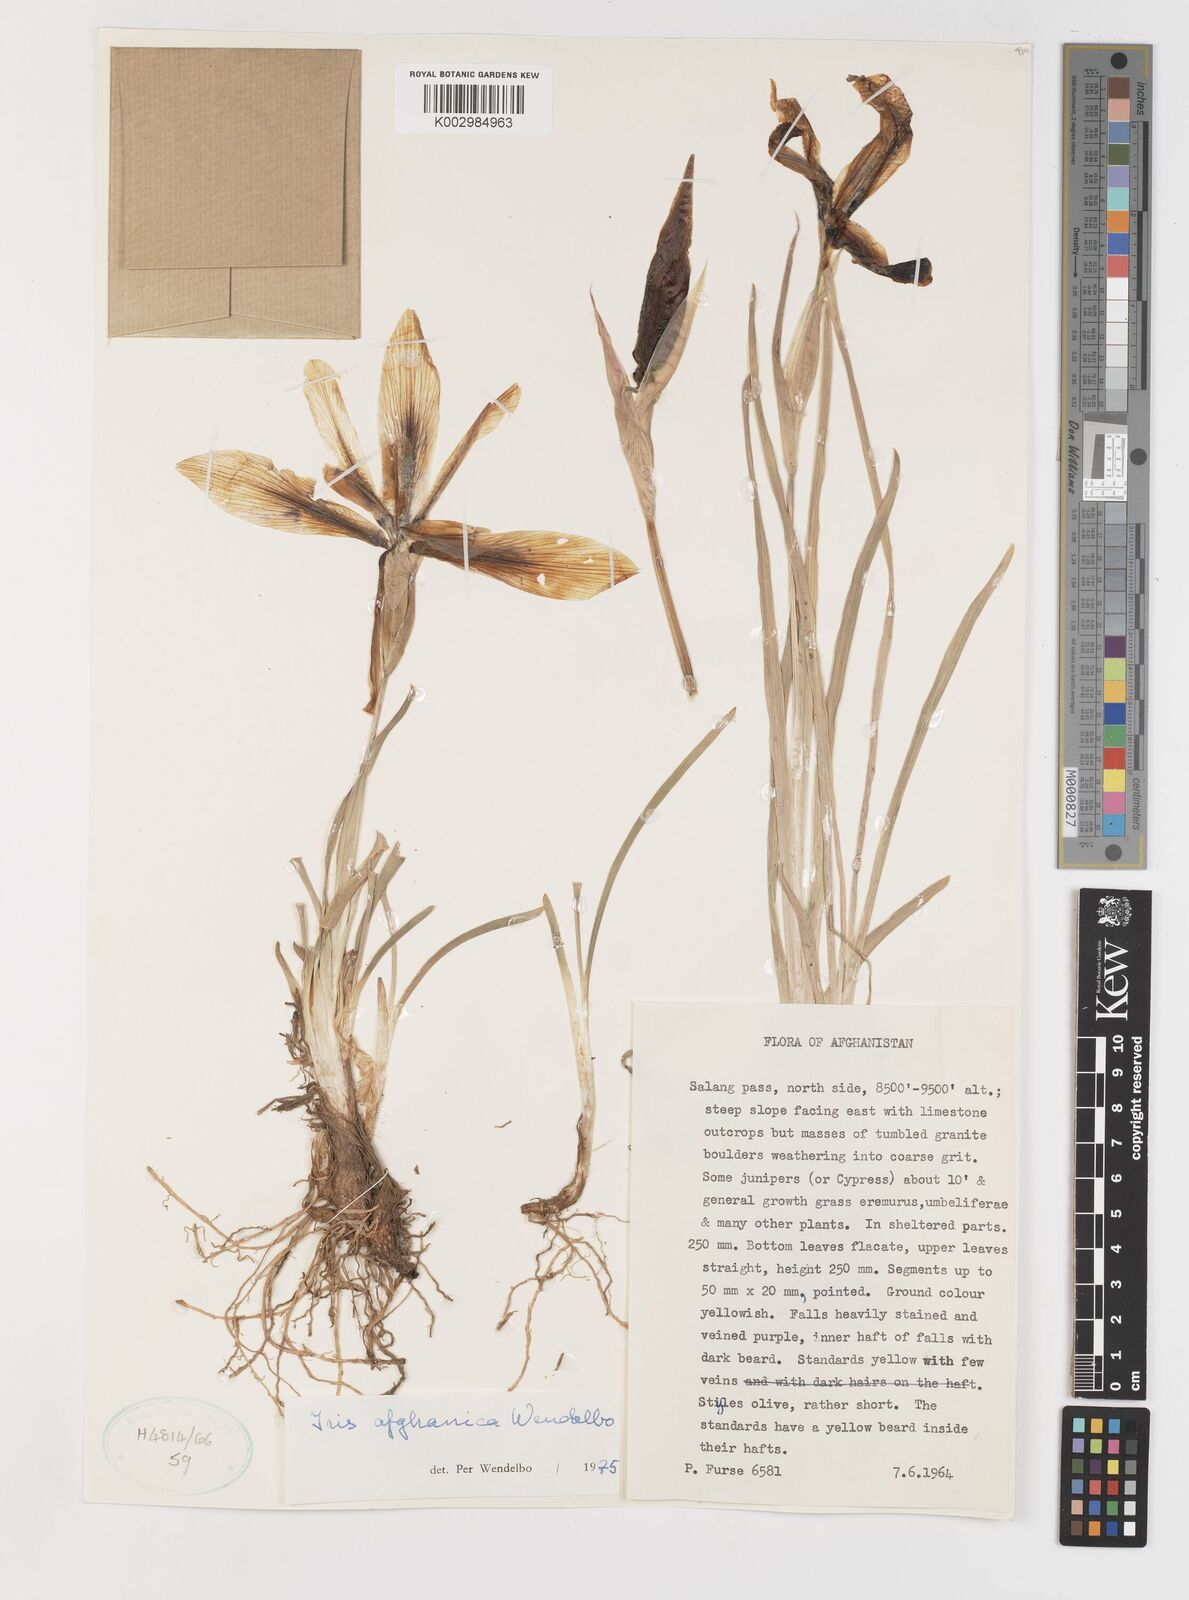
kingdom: Plantae
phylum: Tracheophyta
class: Liliopsida
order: Asparagales
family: Iridaceae
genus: Iris
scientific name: Iris afghanica
